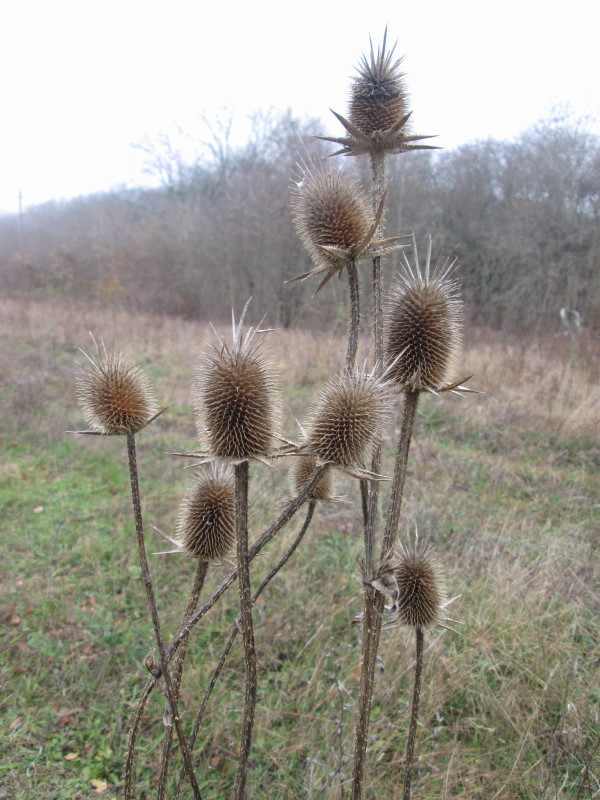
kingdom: Plantae
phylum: Tracheophyta
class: Magnoliopsida
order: Dipsacales
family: Caprifoliaceae
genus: Dipsacus
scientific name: Dipsacus fullonum
